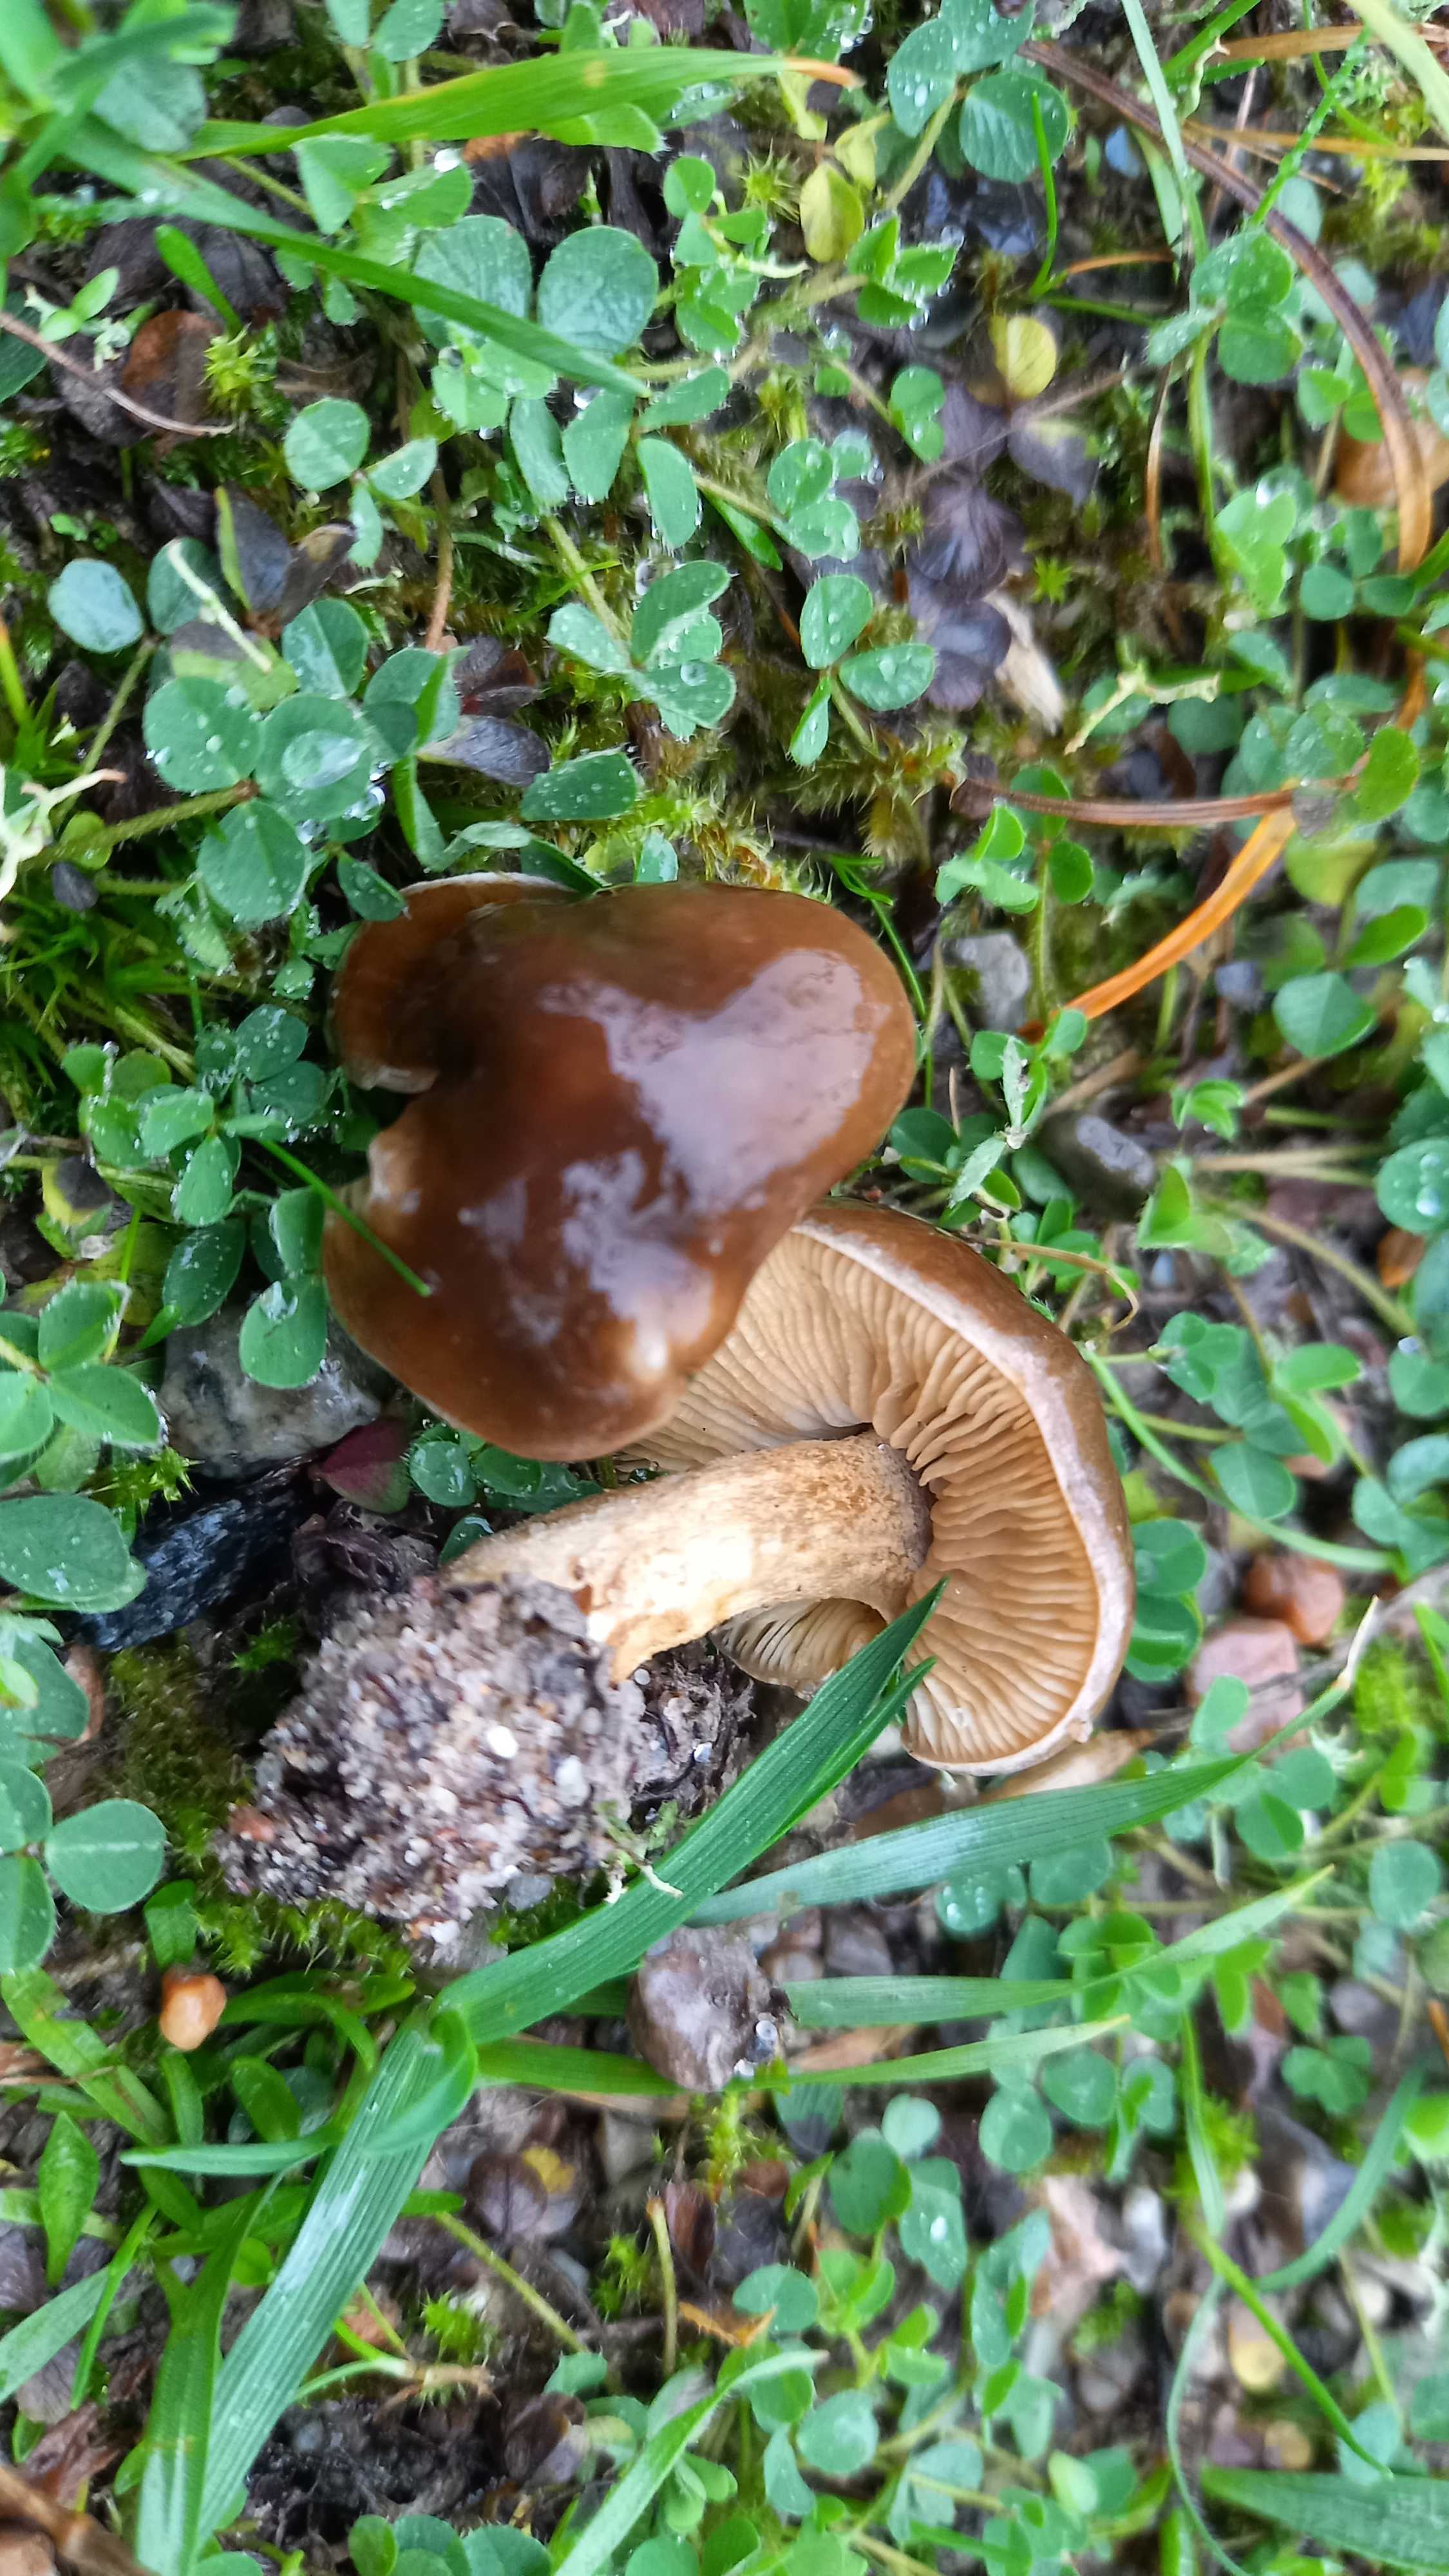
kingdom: Fungi
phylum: Basidiomycota
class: Agaricomycetes
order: Agaricales
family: Tricholomataceae
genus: Melanoleuca
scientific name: Melanoleuca
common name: munkehat
